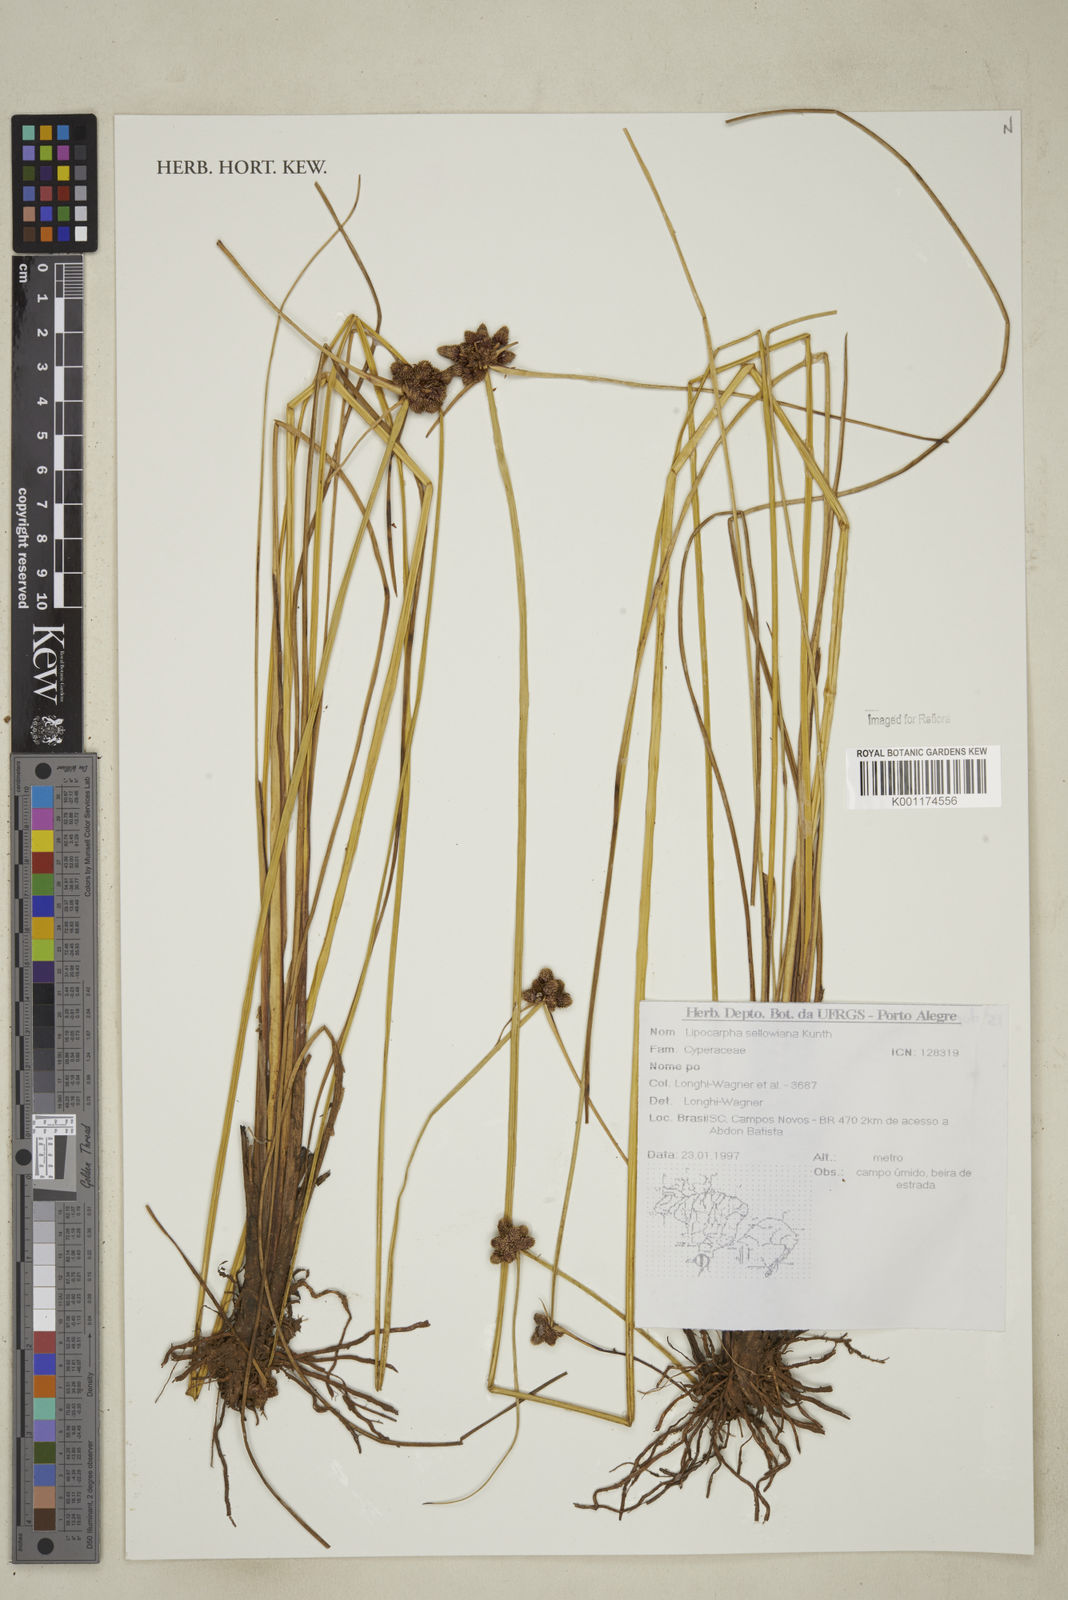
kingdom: Plantae
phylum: Tracheophyta
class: Liliopsida
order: Poales
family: Cyperaceae
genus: Cyperus
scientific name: Cyperus sellowianus
